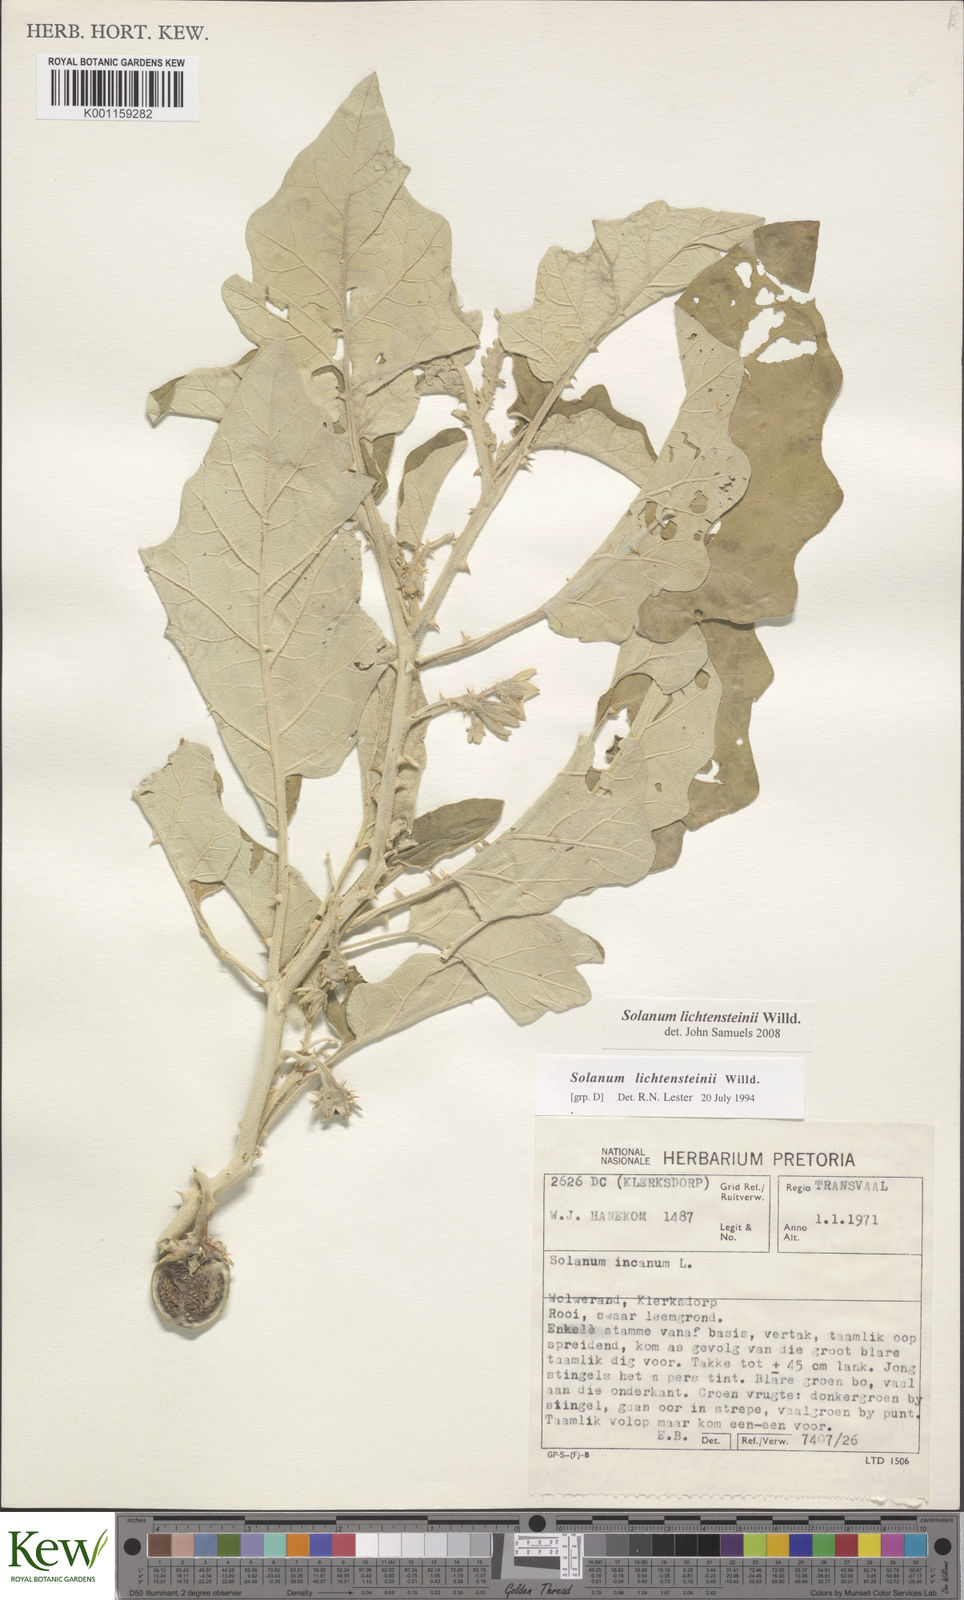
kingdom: Plantae
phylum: Tracheophyta
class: Magnoliopsida
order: Solanales
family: Solanaceae
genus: Solanum
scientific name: Solanum lichtensteinii
